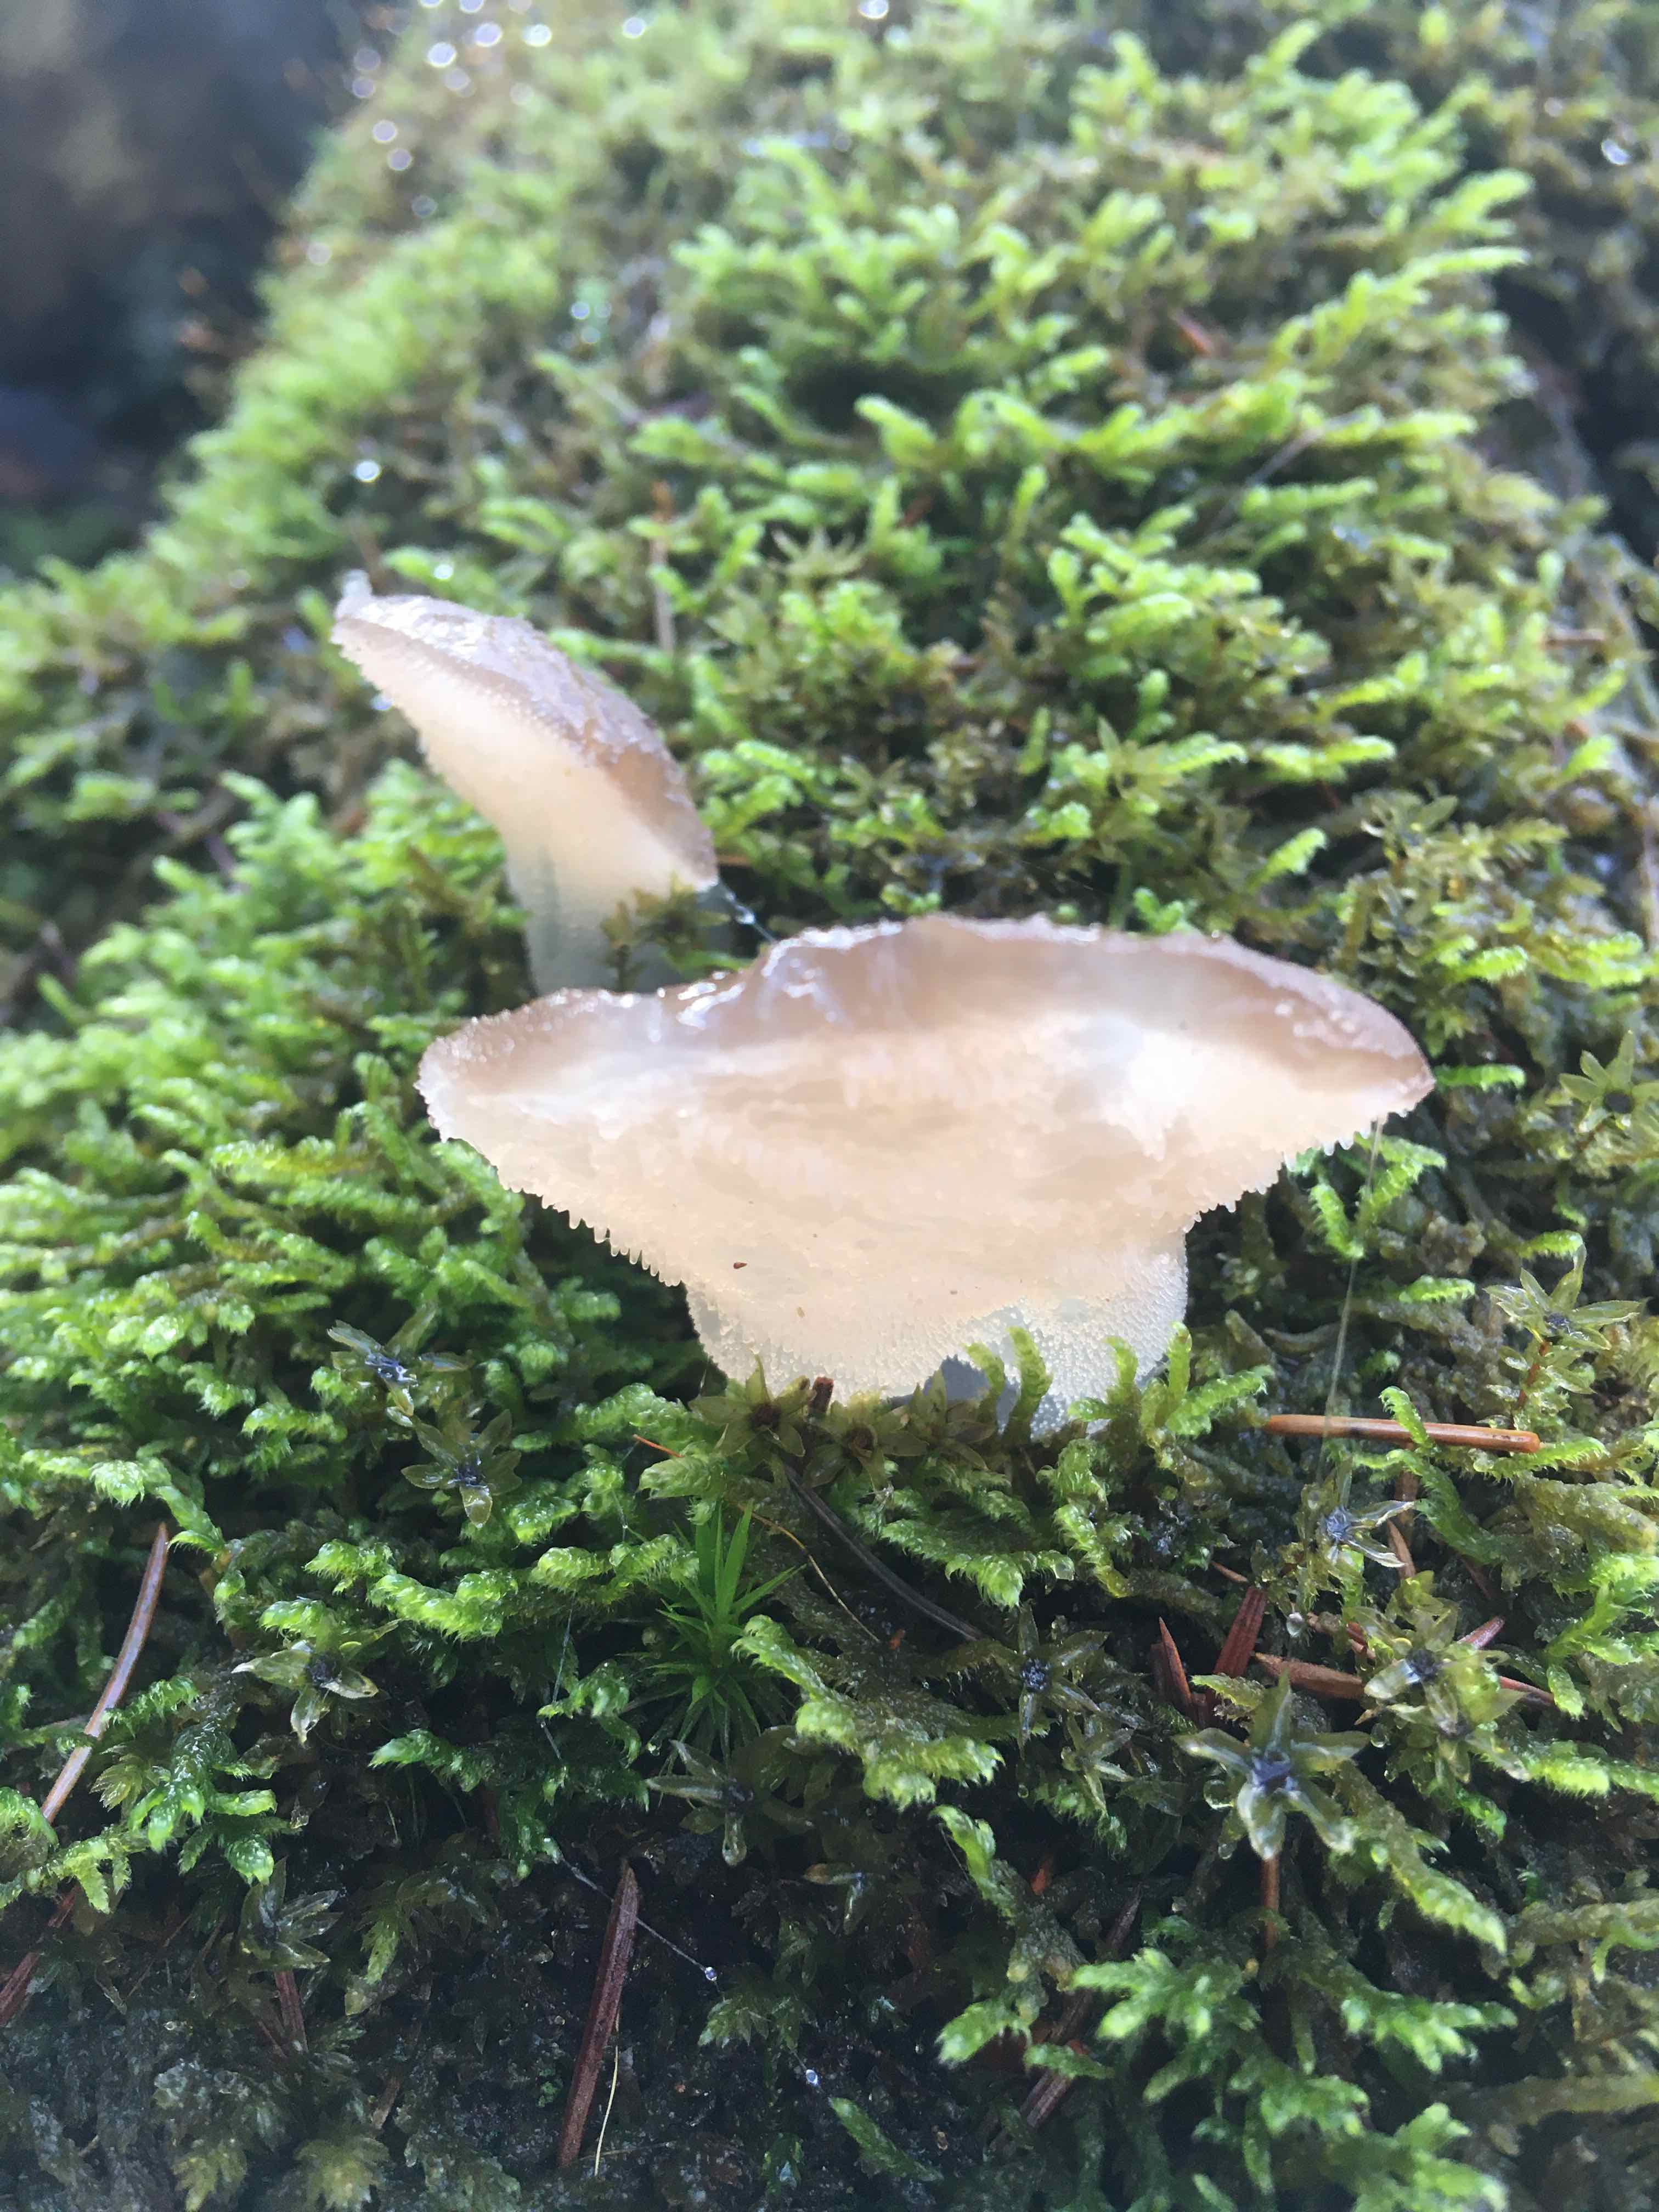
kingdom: Fungi
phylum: Basidiomycota
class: Agaricomycetes
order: Auriculariales
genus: Pseudohydnum
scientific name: Pseudohydnum gelatinosum
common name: bævretand
